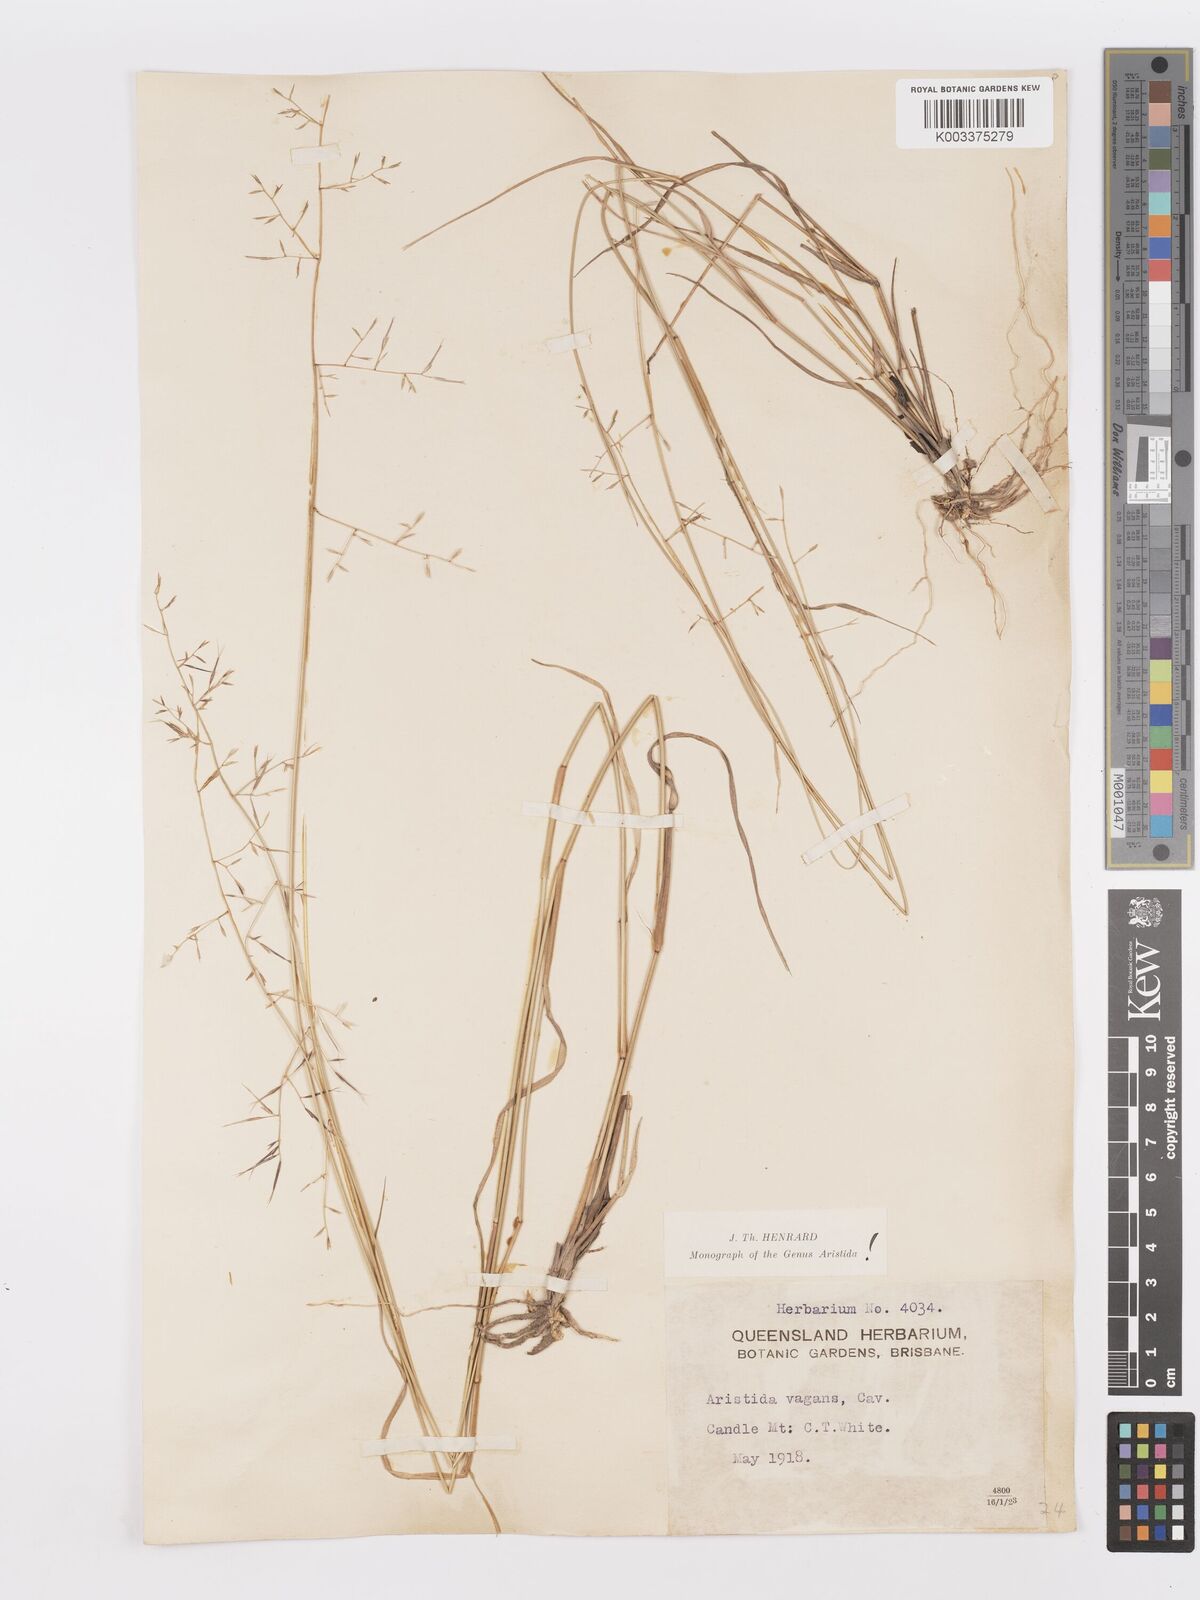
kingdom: Plantae
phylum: Tracheophyta
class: Liliopsida
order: Poales
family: Poaceae
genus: Aristida
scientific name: Aristida vagans
